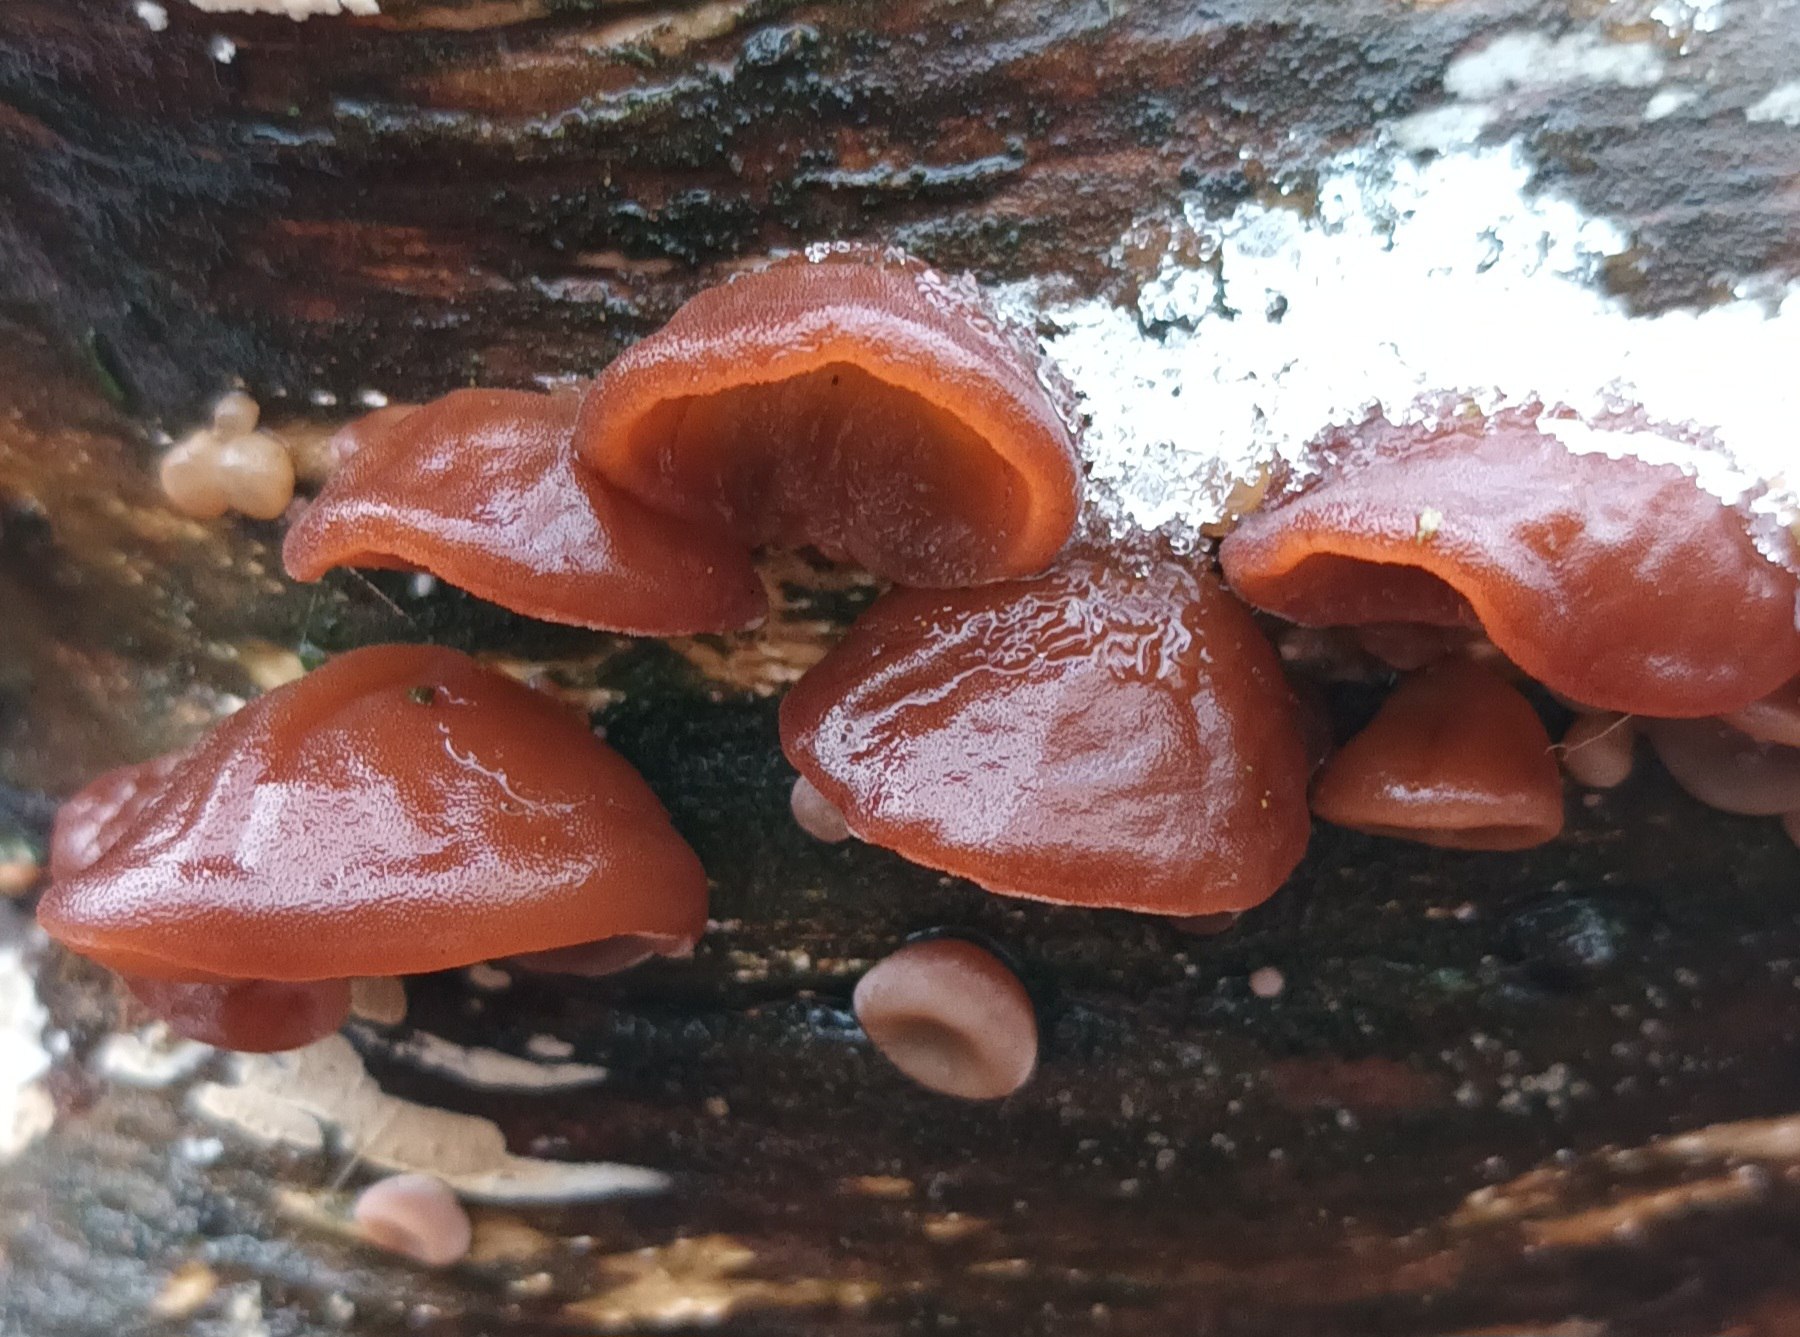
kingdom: Fungi
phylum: Basidiomycota
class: Agaricomycetes
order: Auriculariales
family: Auriculariaceae
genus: Auricularia
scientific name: Auricularia auricula-judae
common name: Almindelig judasøre
